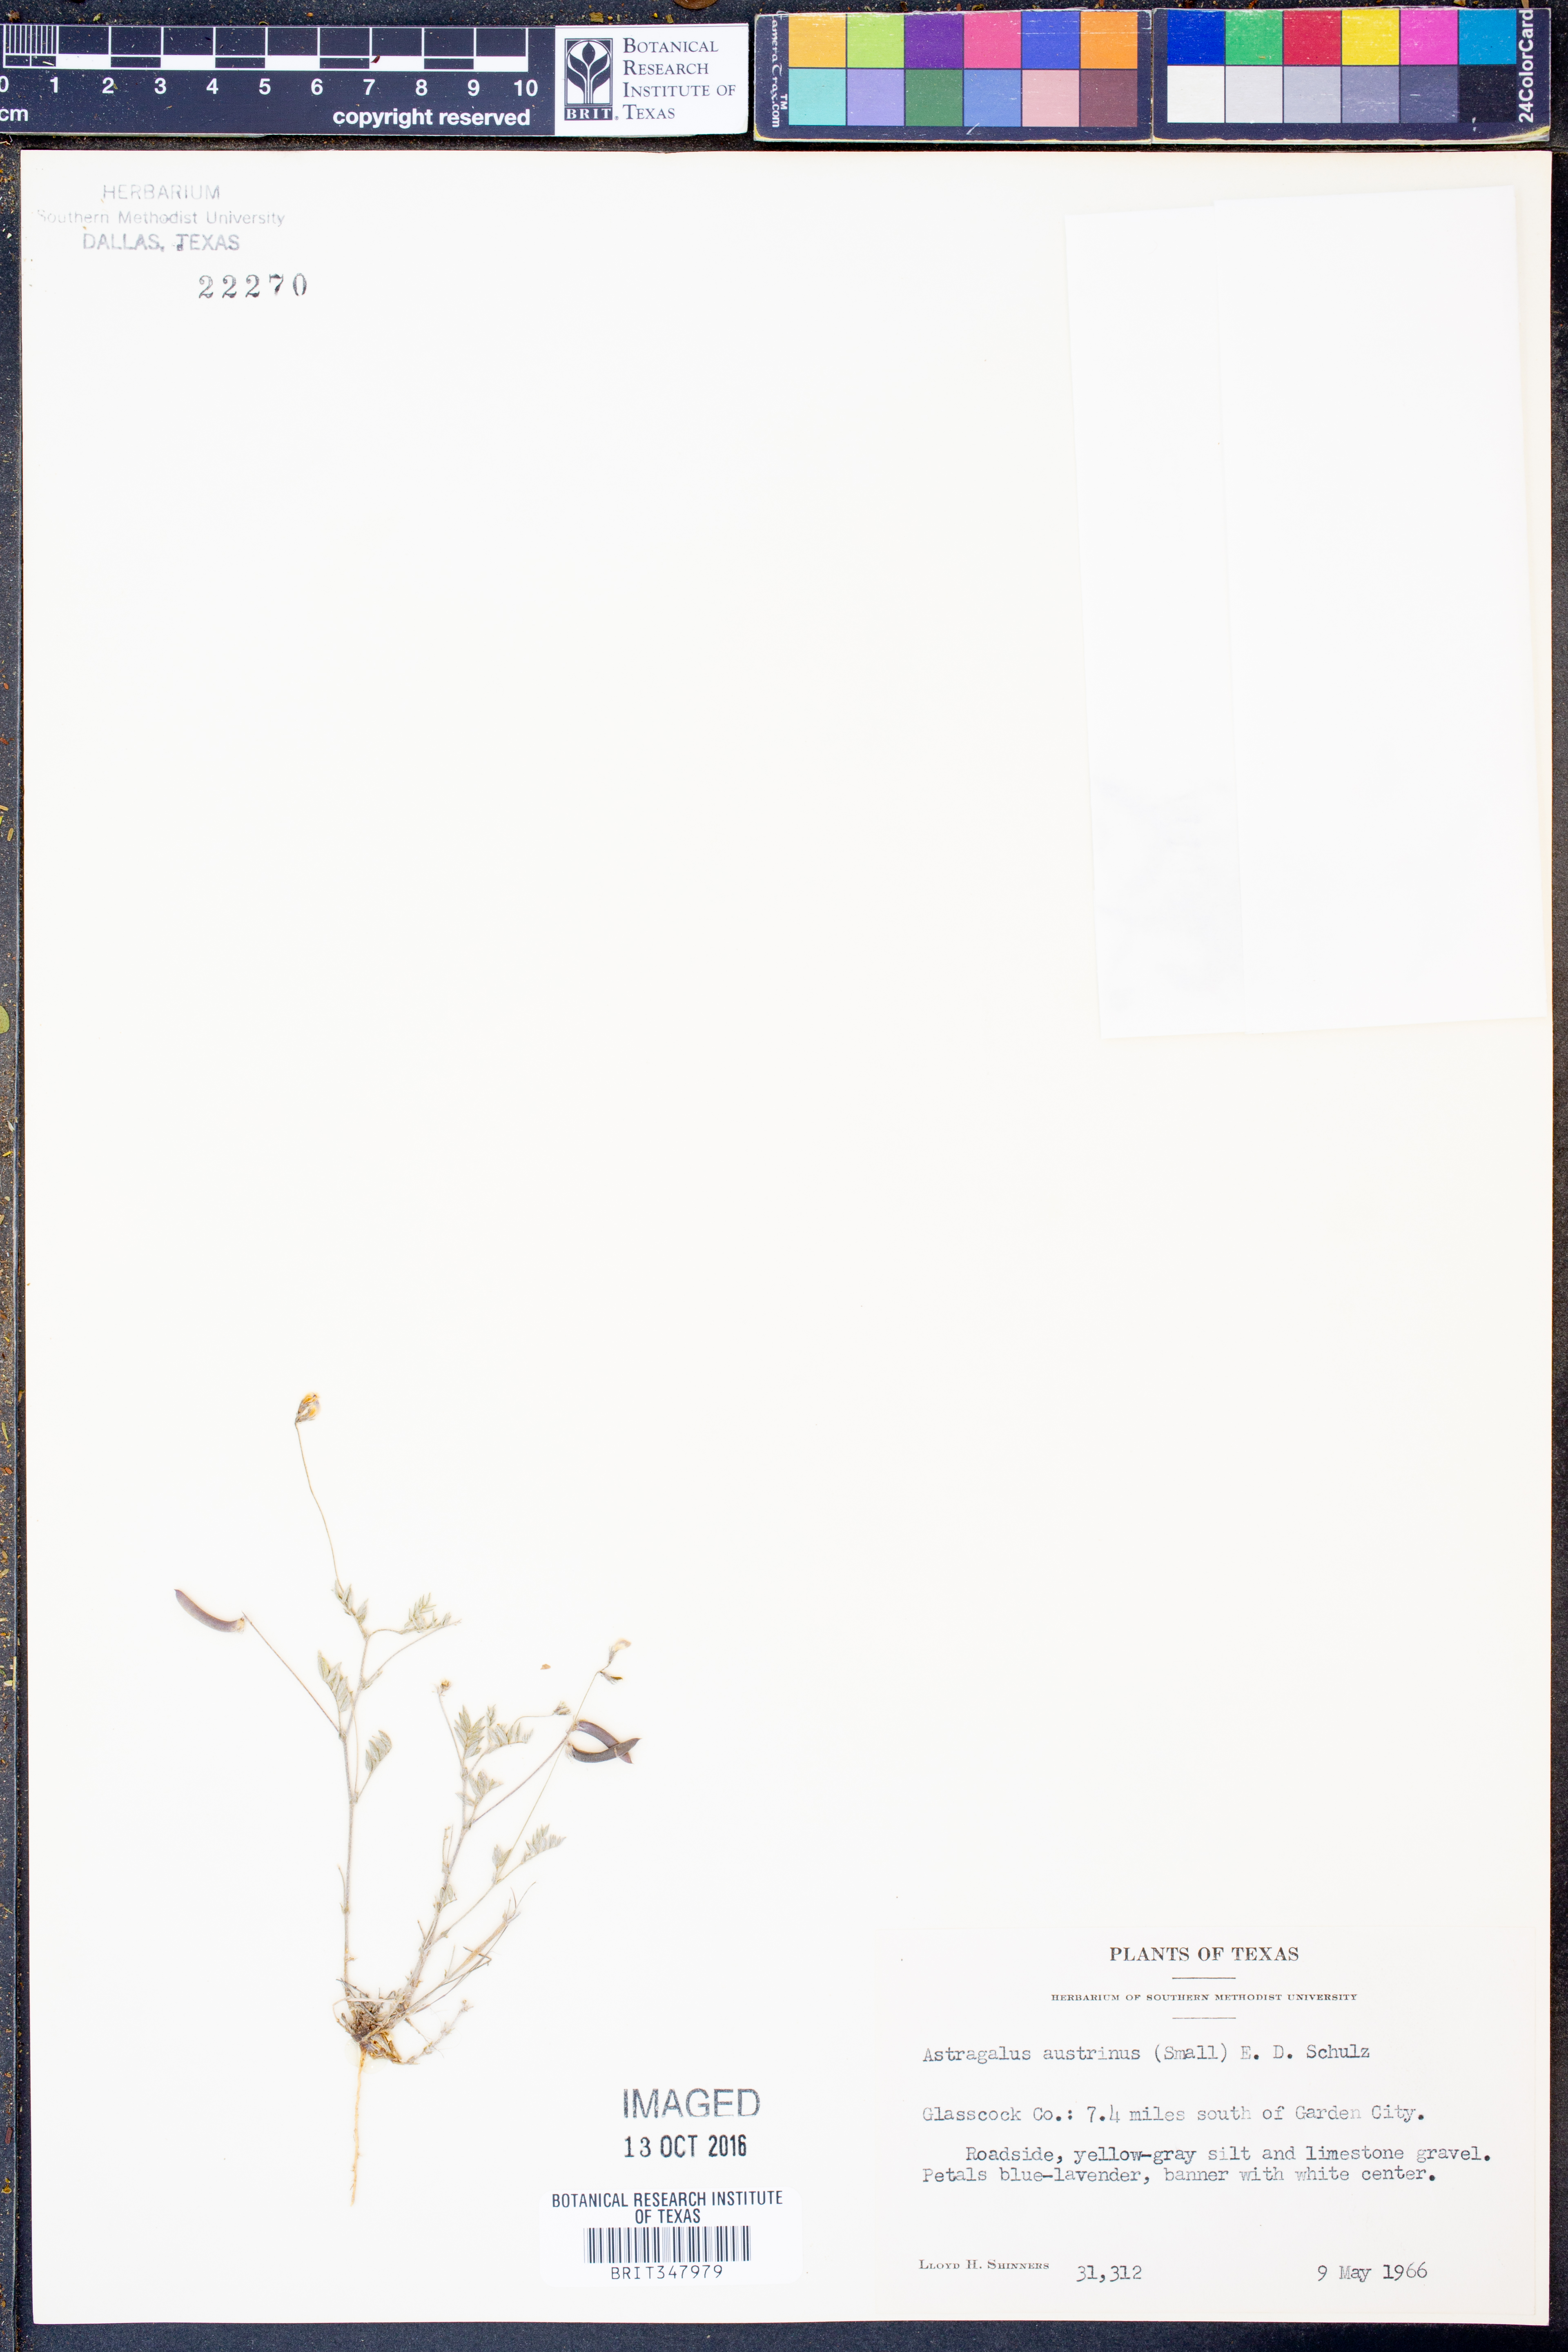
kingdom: Plantae
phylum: Tracheophyta
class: Magnoliopsida
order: Fabales
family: Fabaceae
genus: Astragalus
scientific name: Astragalus nuttallianus
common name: Smallflowered milkvetch
